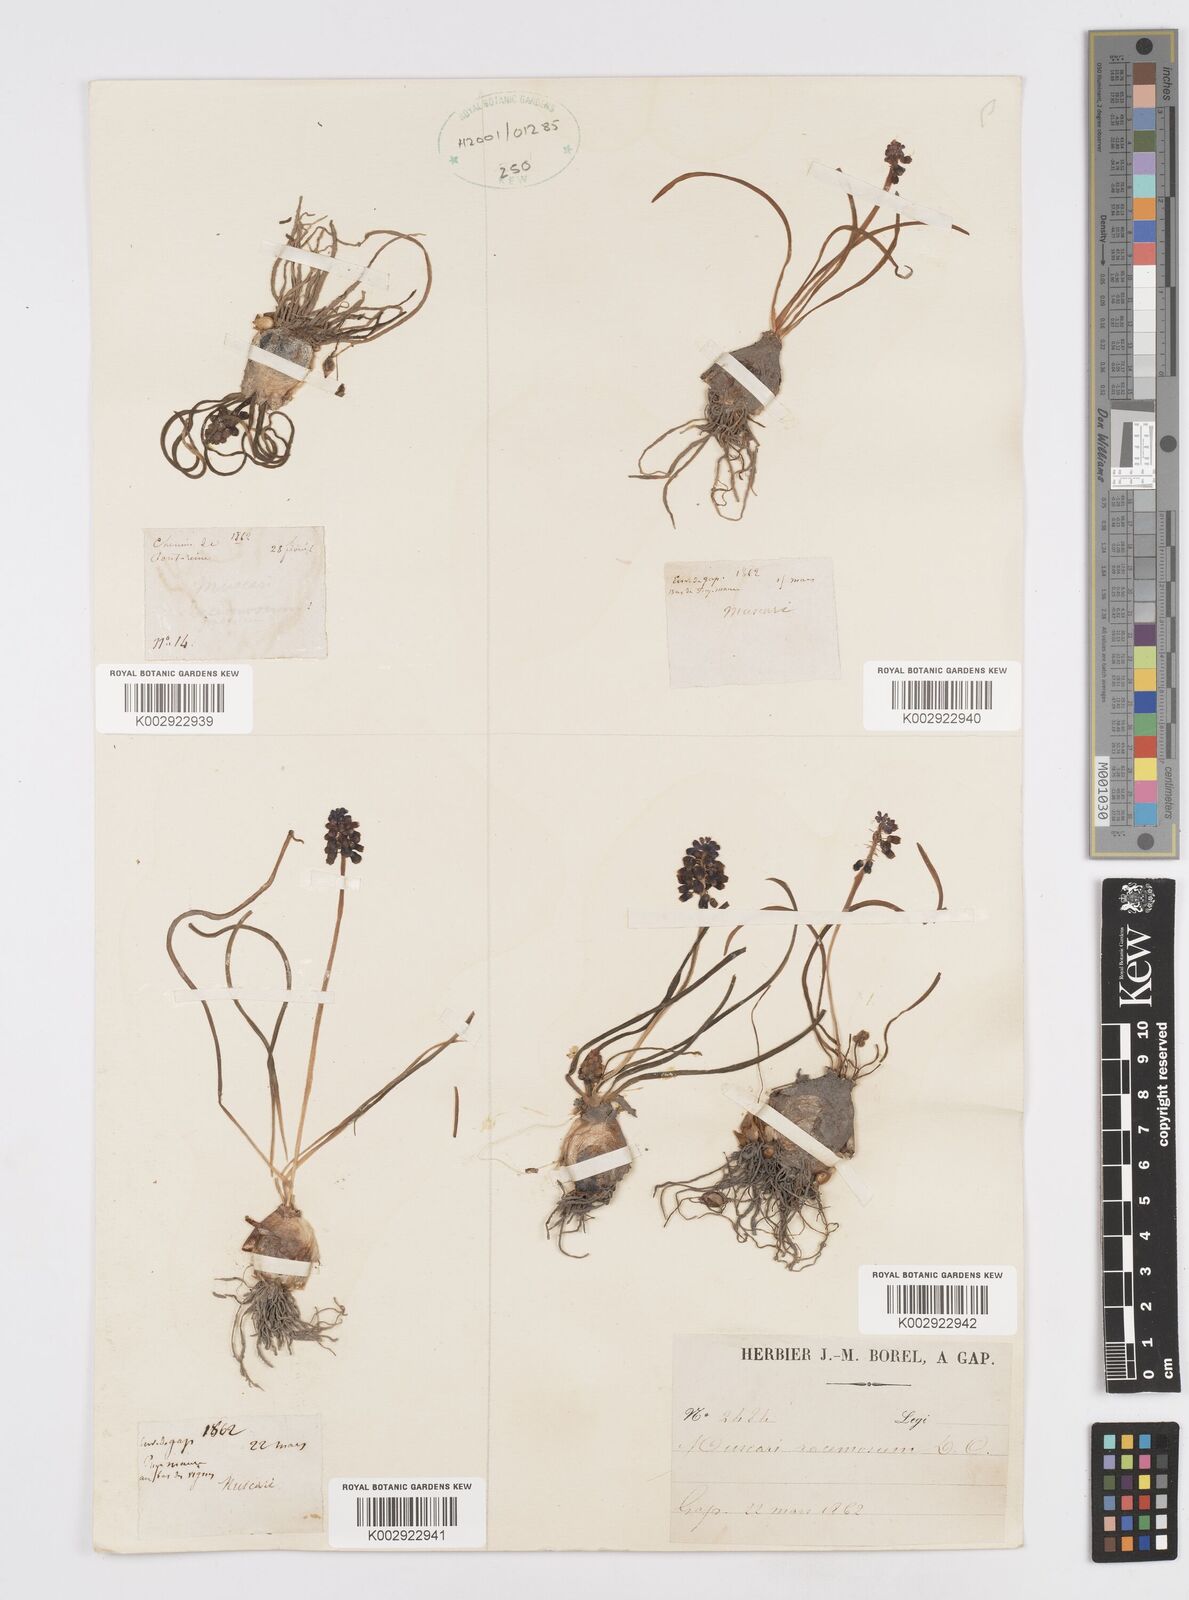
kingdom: Plantae
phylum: Tracheophyta
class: Liliopsida
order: Asparagales
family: Asparagaceae
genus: Muscari
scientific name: Muscari neglectum
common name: Grape-hyacinth
